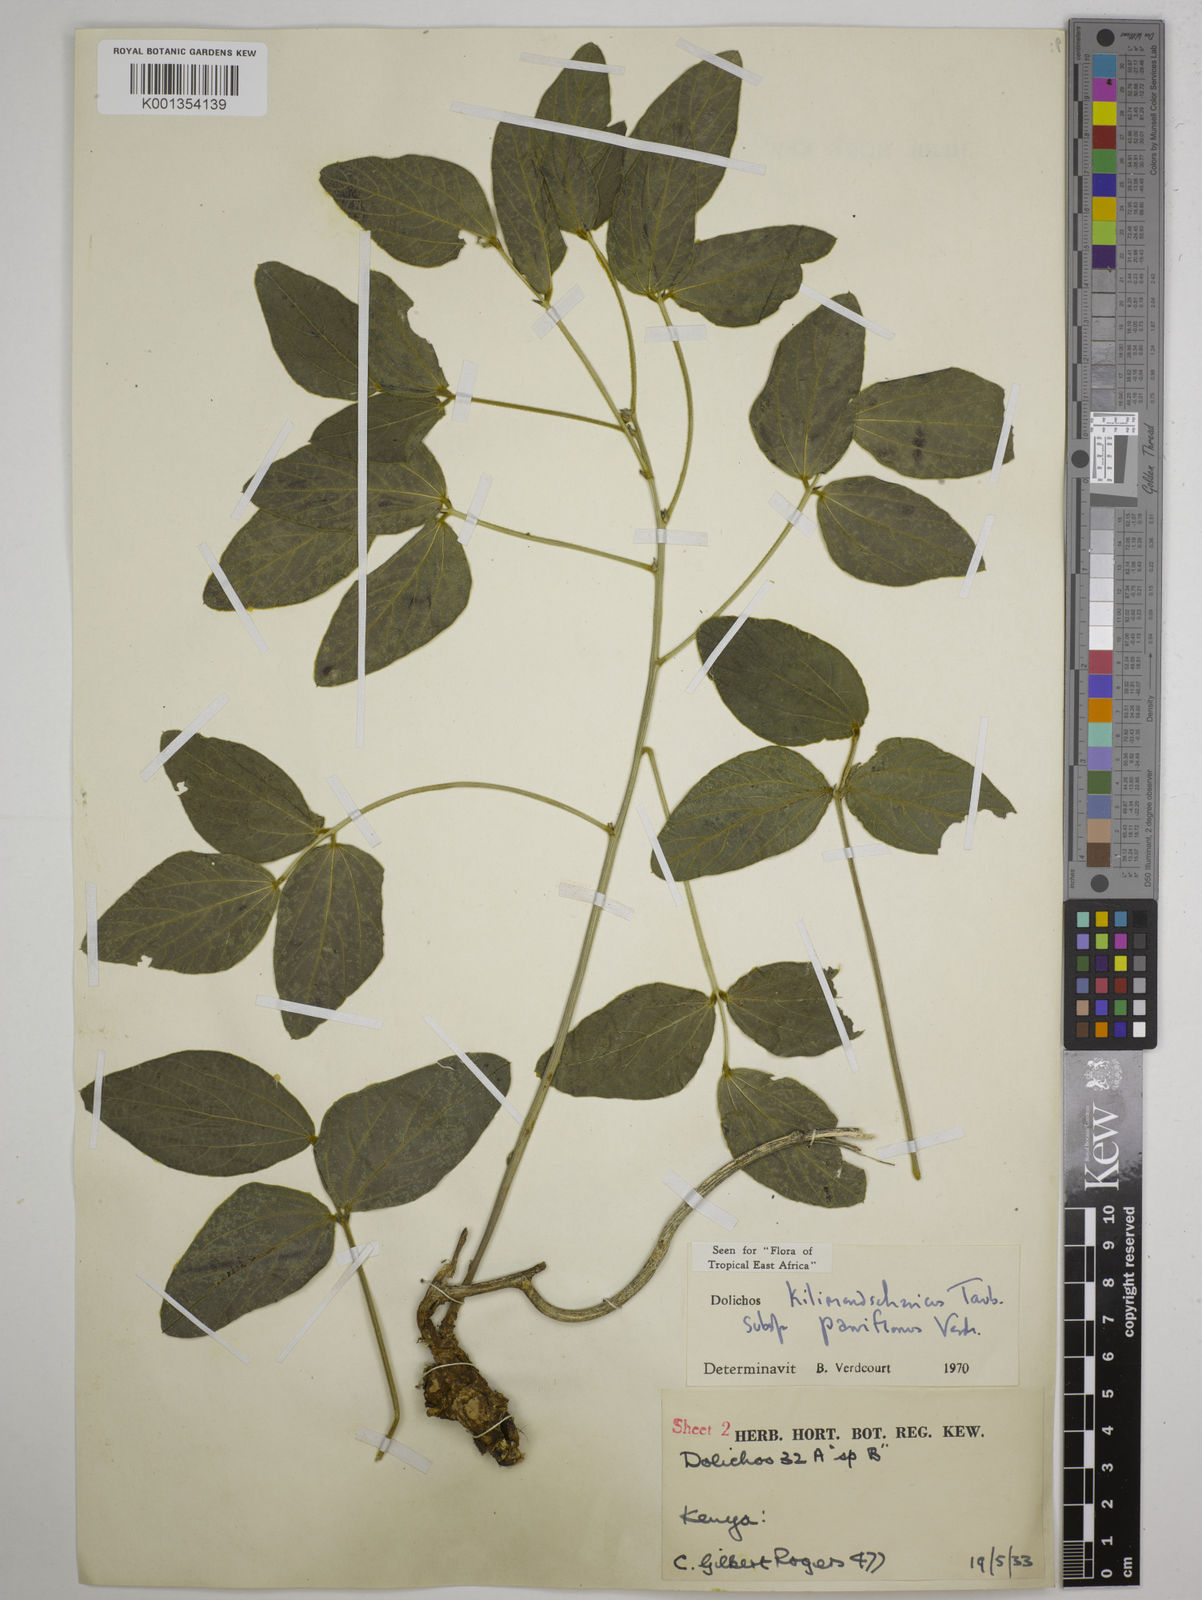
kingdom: Plantae
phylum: Tracheophyta
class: Magnoliopsida
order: Fabales
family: Fabaceae
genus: Dolichos
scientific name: Dolichos
